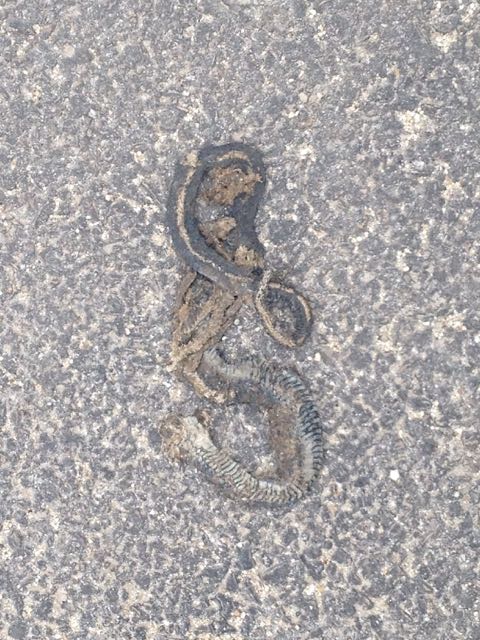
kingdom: Animalia
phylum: Chordata
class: Squamata
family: Colubridae
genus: Natrix
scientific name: Natrix natrix
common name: Grass snake
